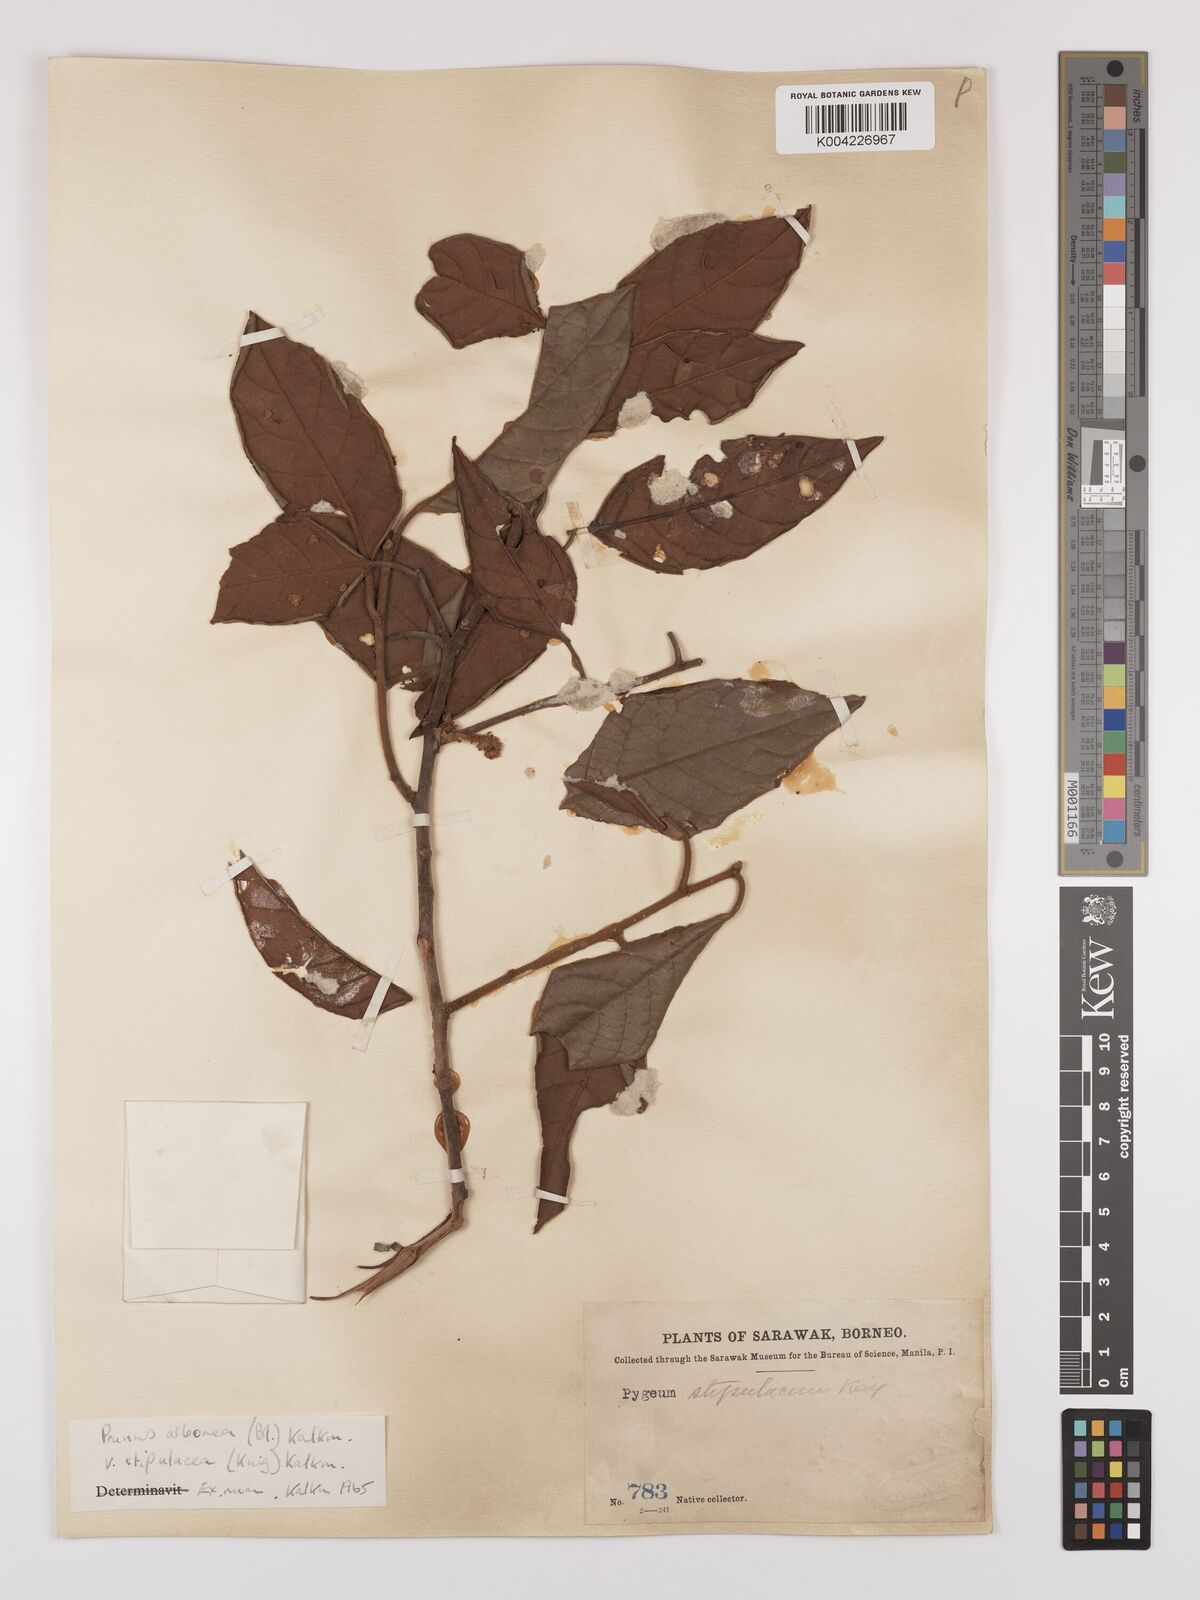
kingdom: Plantae
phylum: Tracheophyta
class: Magnoliopsida
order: Rosales
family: Rosaceae
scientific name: Rosaceae
